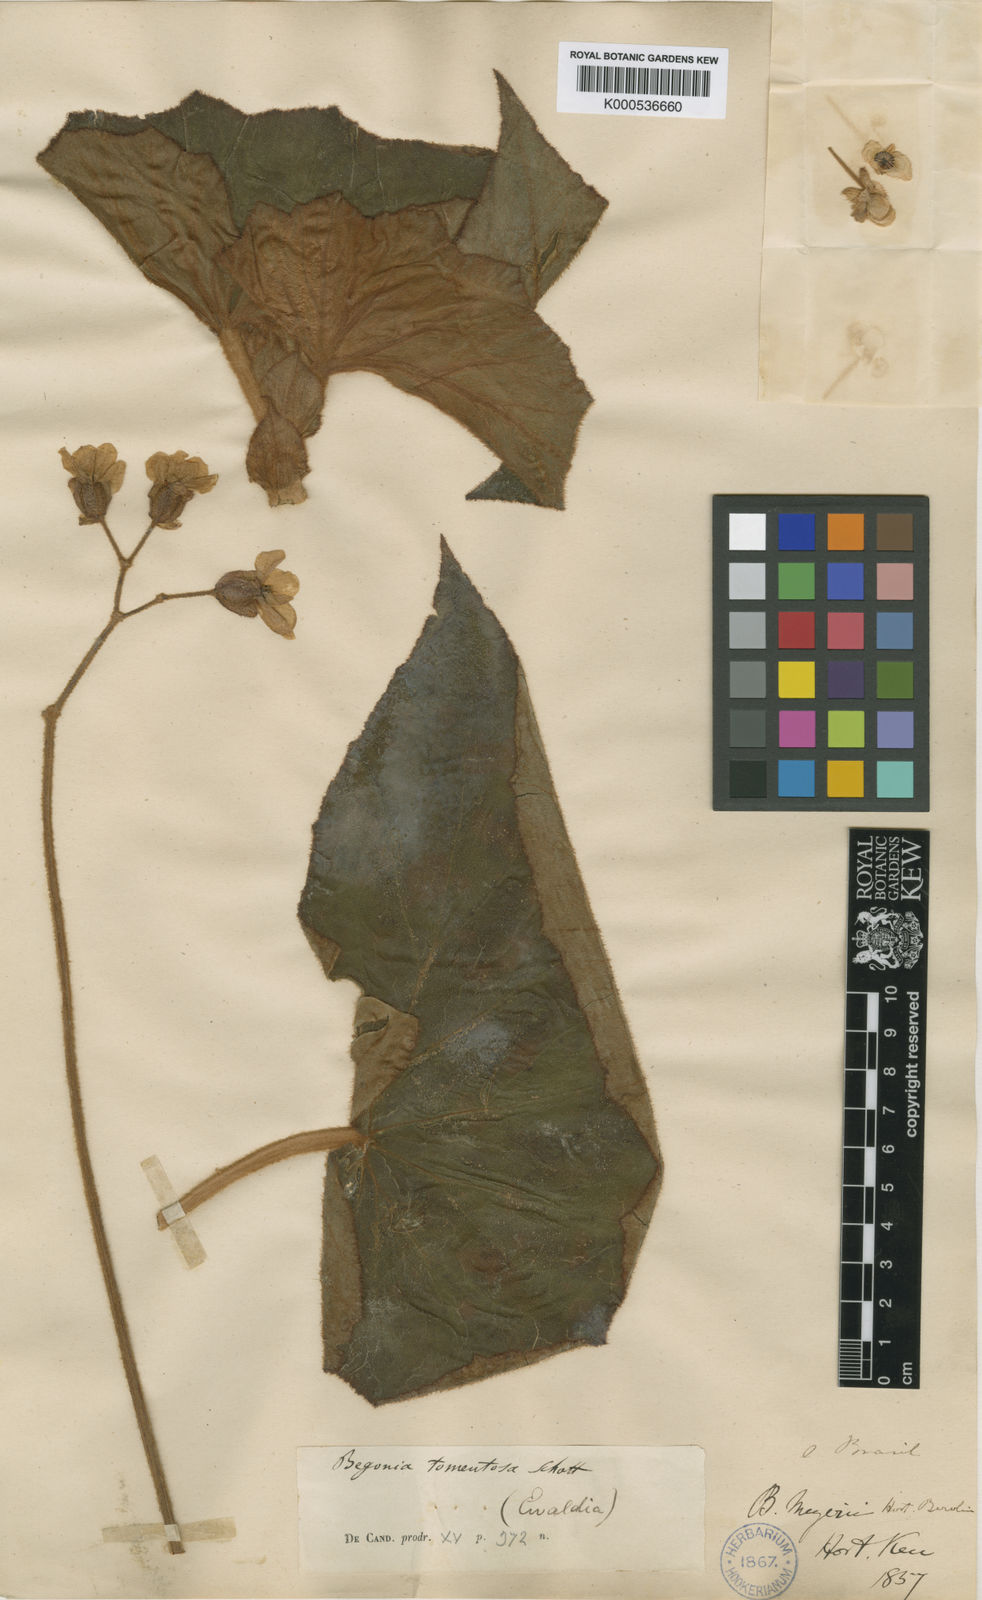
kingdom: Plantae
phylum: Tracheophyta
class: Magnoliopsida
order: Cucurbitales
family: Begoniaceae
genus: Begonia
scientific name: Begonia tomentosa
